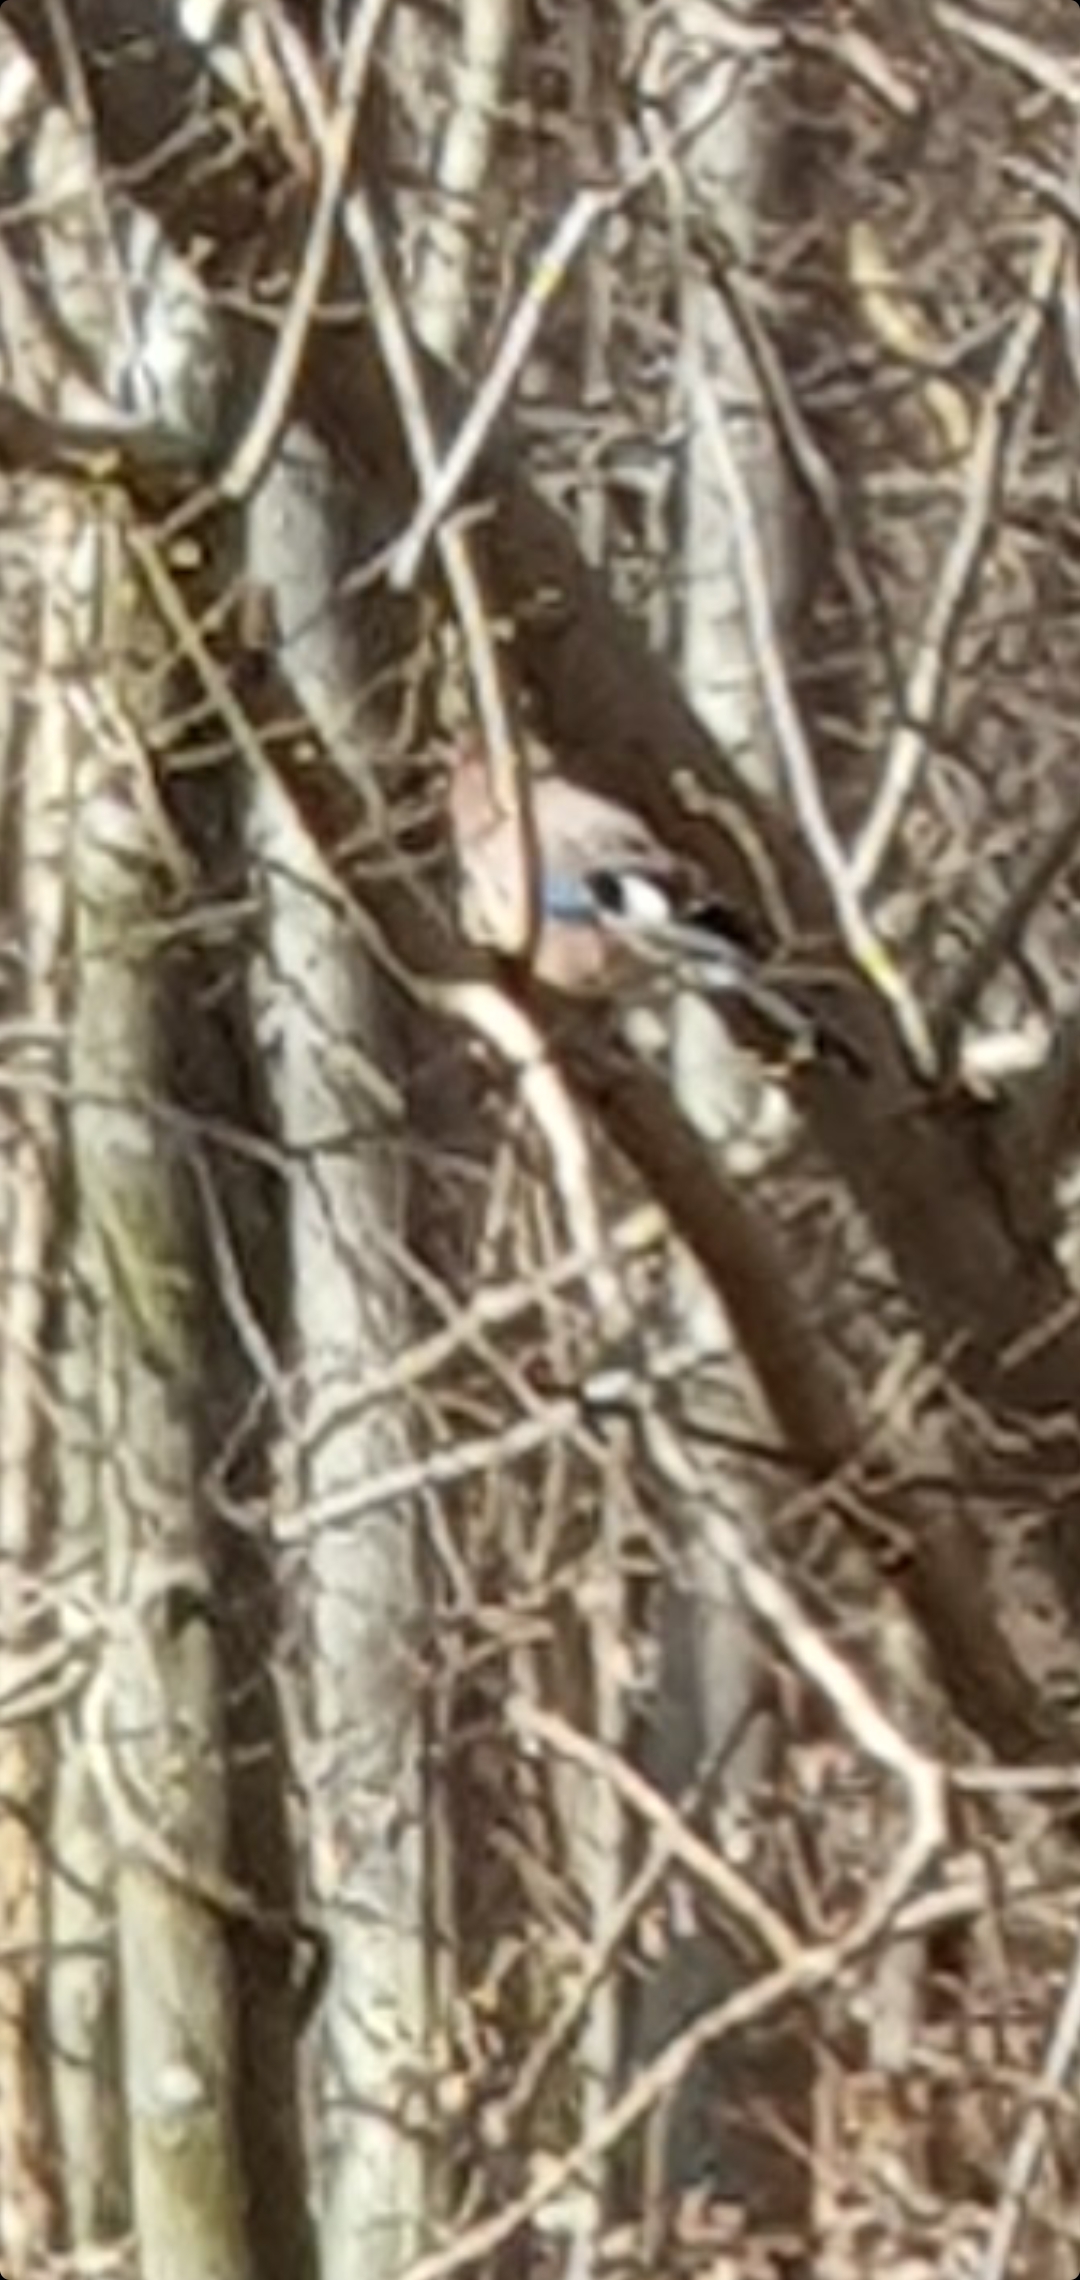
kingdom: Animalia
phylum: Chordata
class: Aves
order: Passeriformes
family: Corvidae
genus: Garrulus
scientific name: Garrulus glandarius
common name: Skovskade
